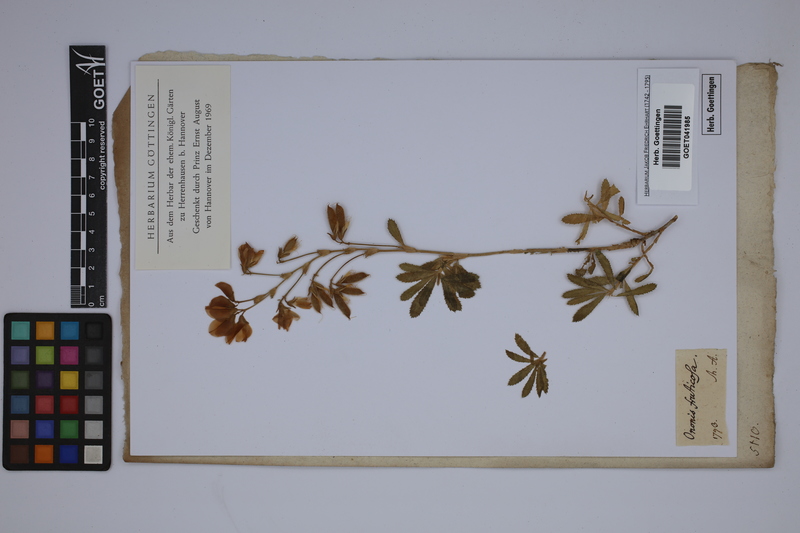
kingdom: Plantae
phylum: Tracheophyta
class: Magnoliopsida
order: Fabales
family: Fabaceae
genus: Ononis
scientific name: Ononis fruticosa
